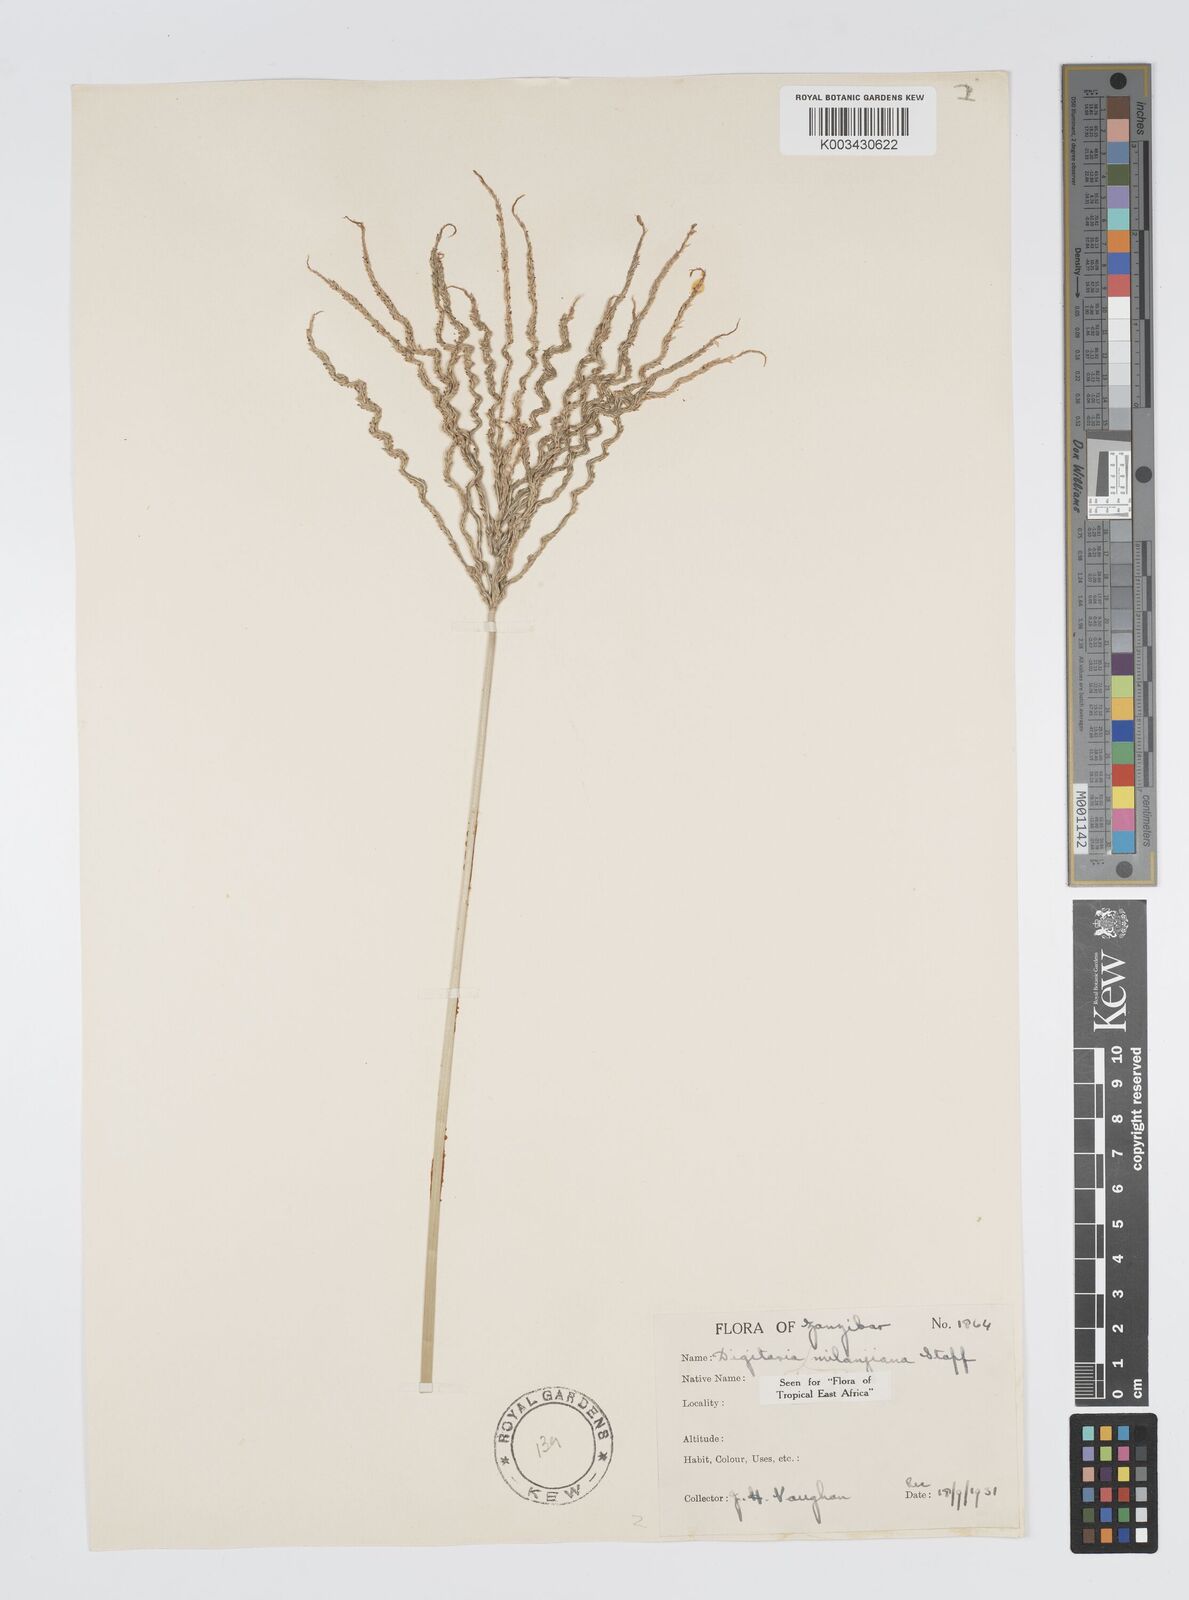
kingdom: Plantae
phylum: Tracheophyta
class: Liliopsida
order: Poales
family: Poaceae
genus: Digitaria
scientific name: Digitaria milanjiana
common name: Madagascar crabgrass
